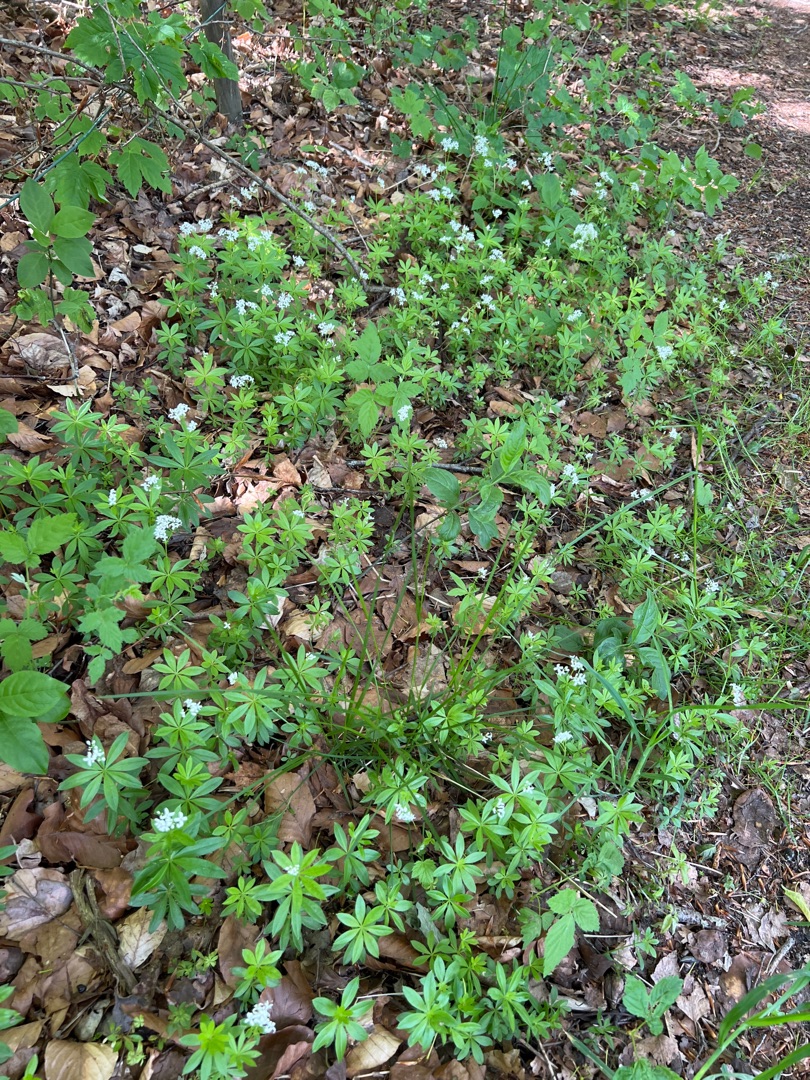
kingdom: Plantae
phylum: Tracheophyta
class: Magnoliopsida
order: Gentianales
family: Rubiaceae
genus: Galium
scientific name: Galium odoratum
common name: Skovmærke
